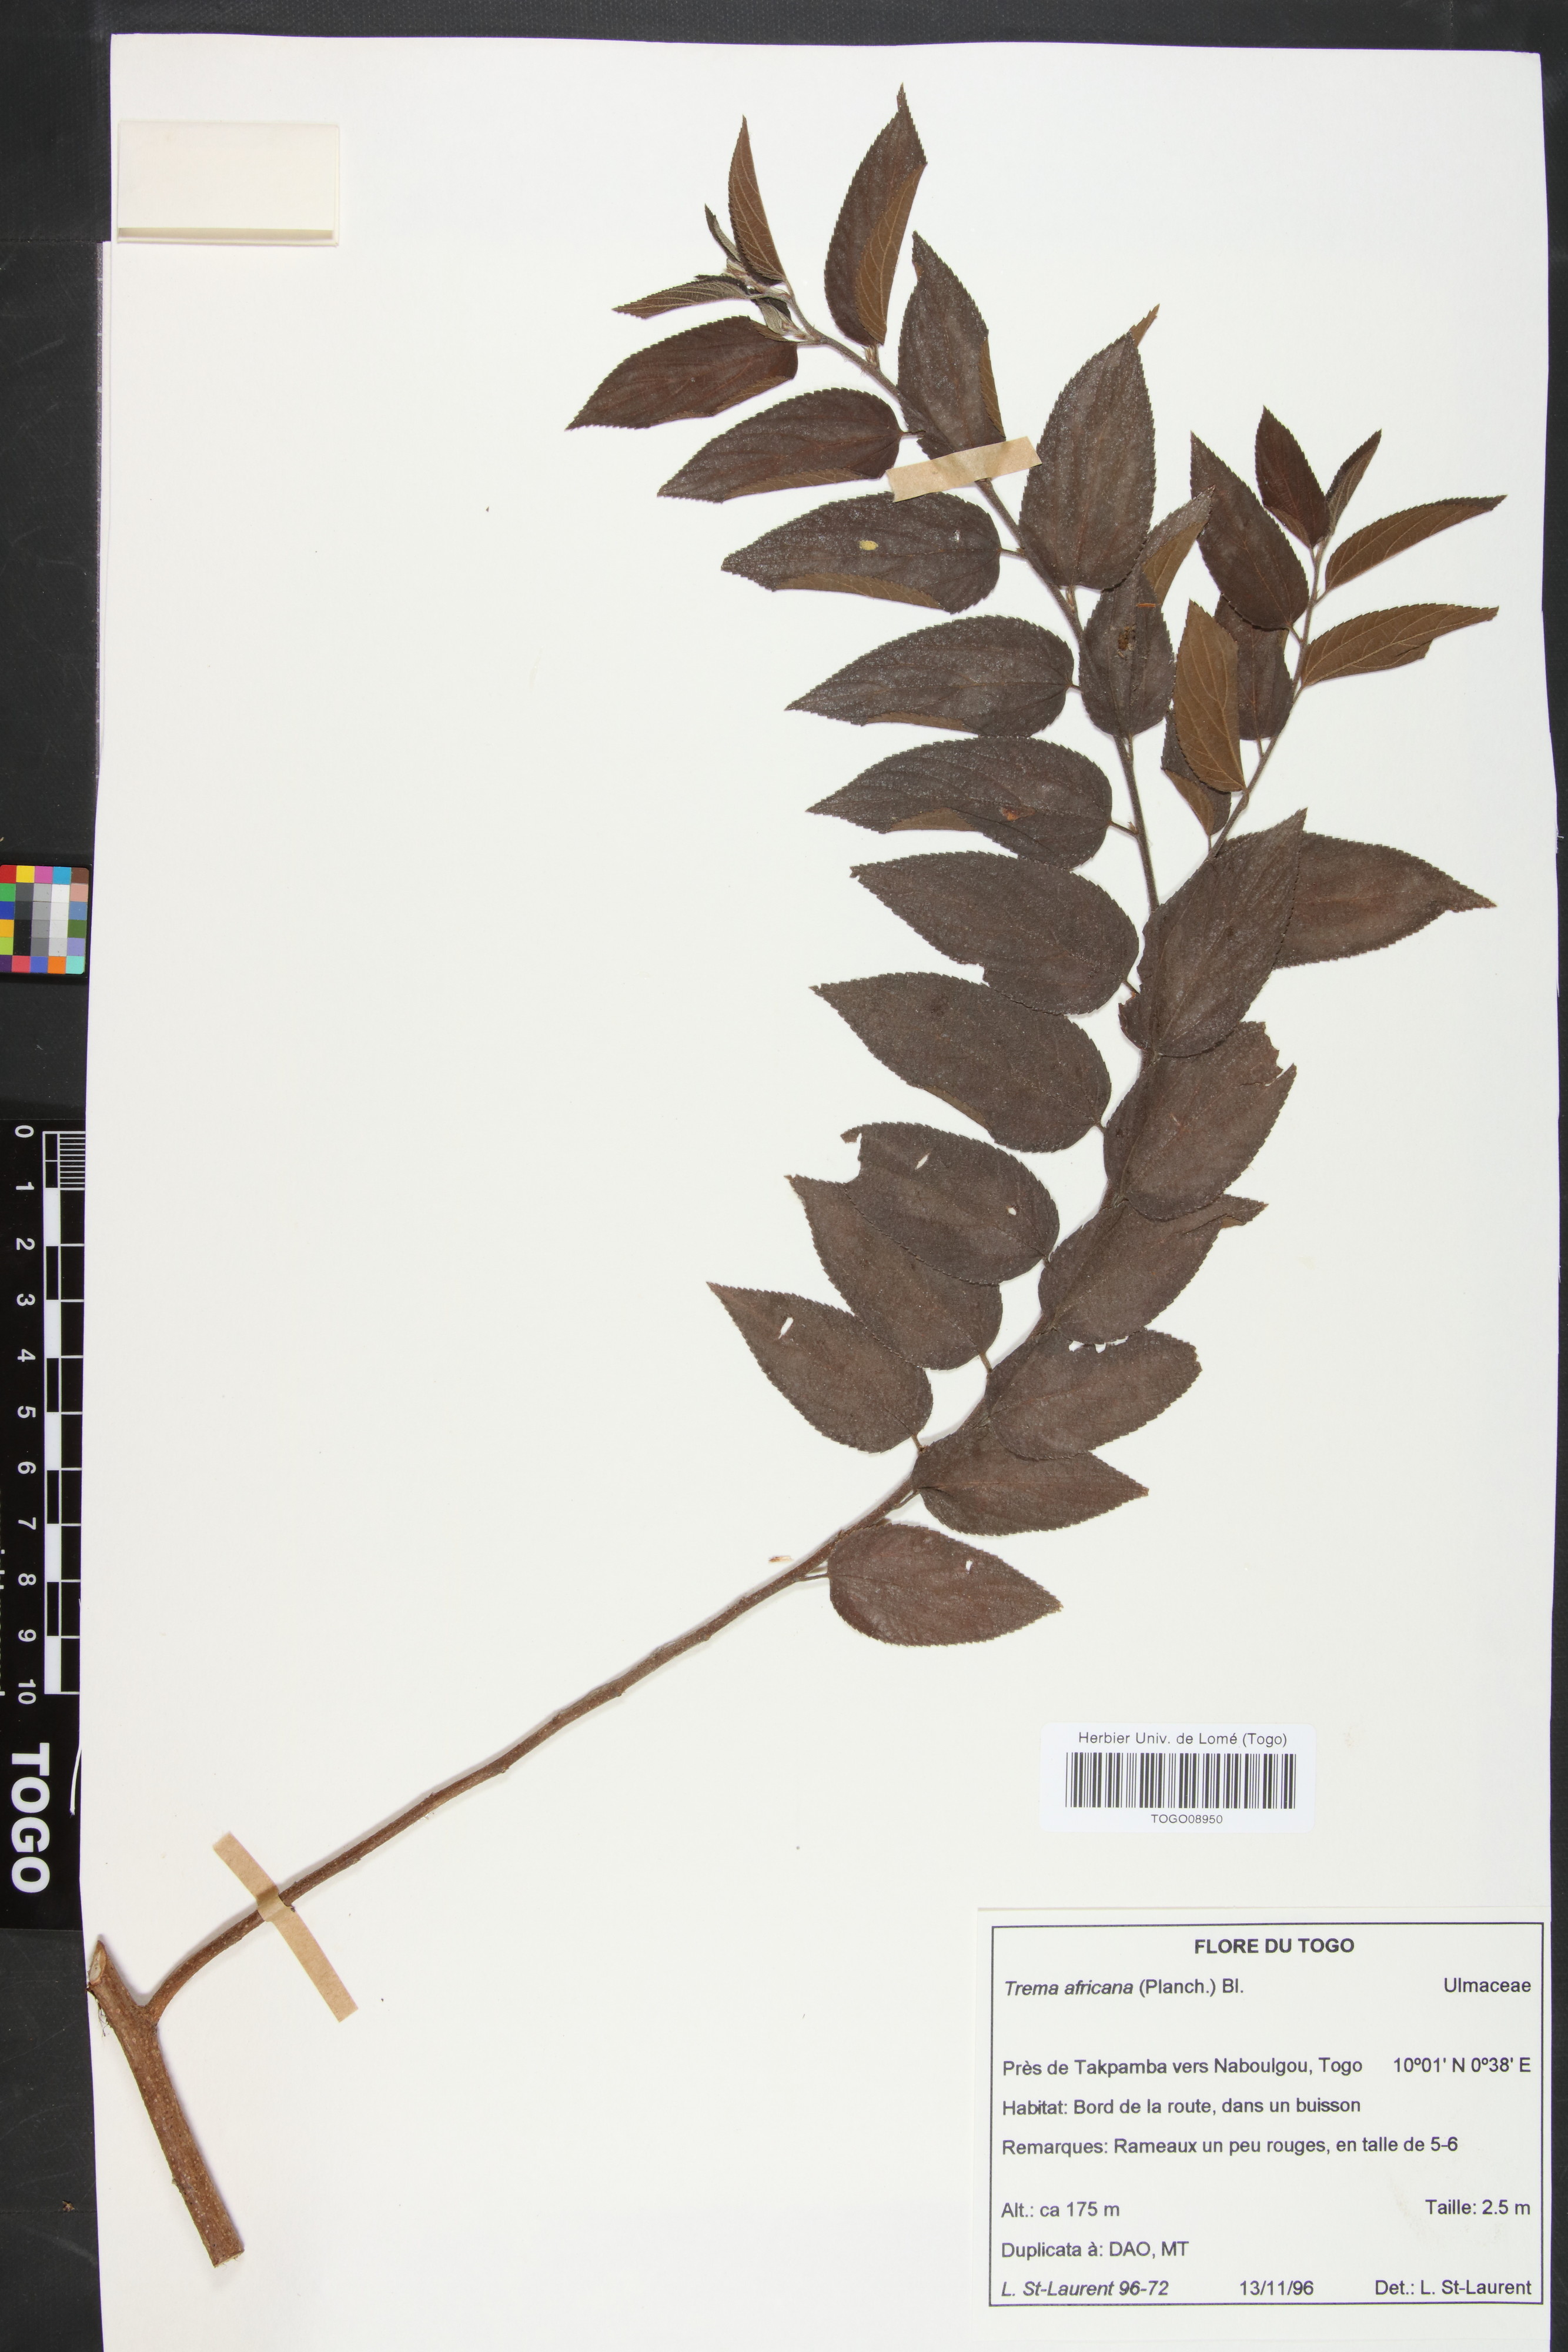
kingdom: Plantae
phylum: Tracheophyta
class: Magnoliopsida
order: Rosales
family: Cannabaceae
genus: Trema
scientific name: Trema orientale
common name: Indian charcoal tree
